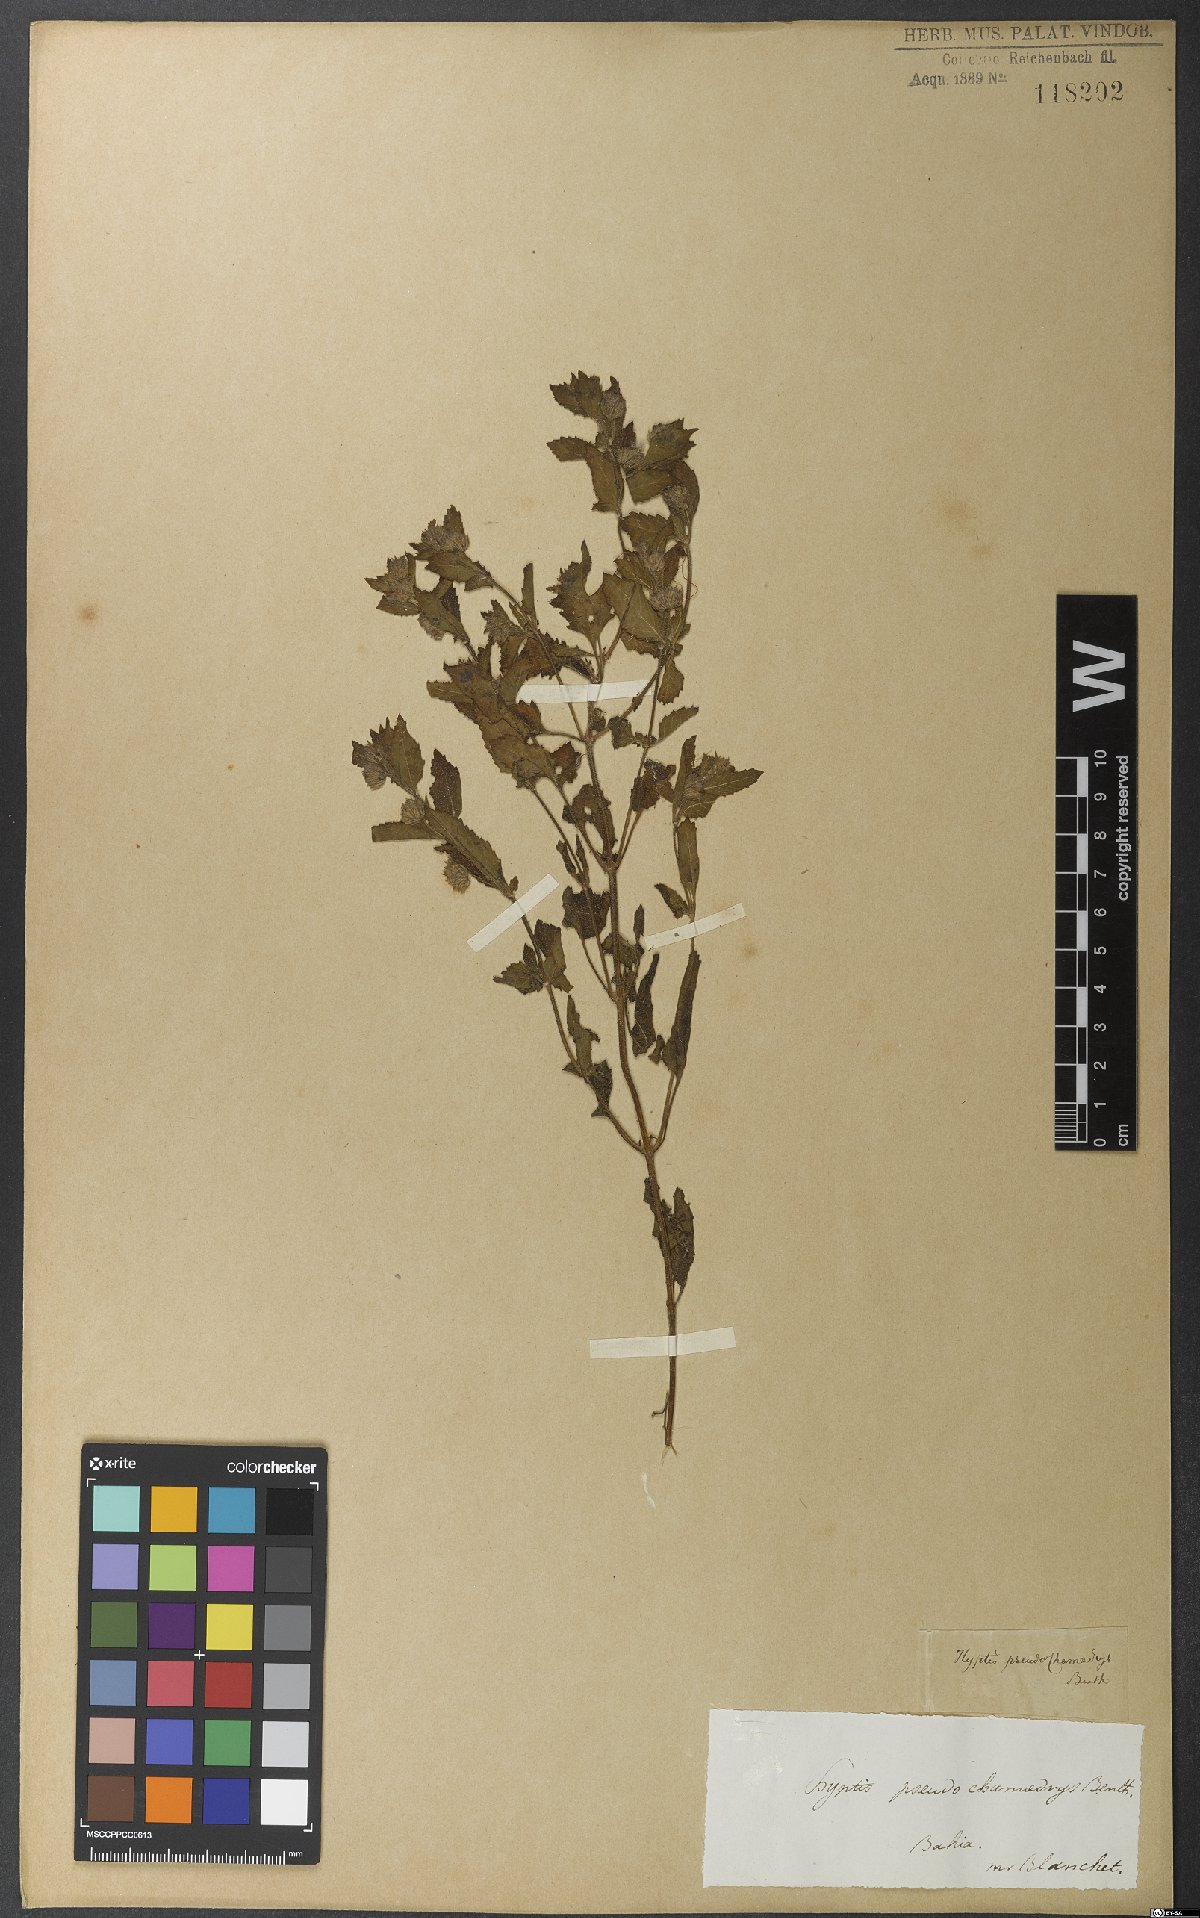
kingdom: Plantae
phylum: Tracheophyta
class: Magnoliopsida
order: Lamiales
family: Lamiaceae
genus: Marsypianthes
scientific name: Marsypianthes chamaedrys
